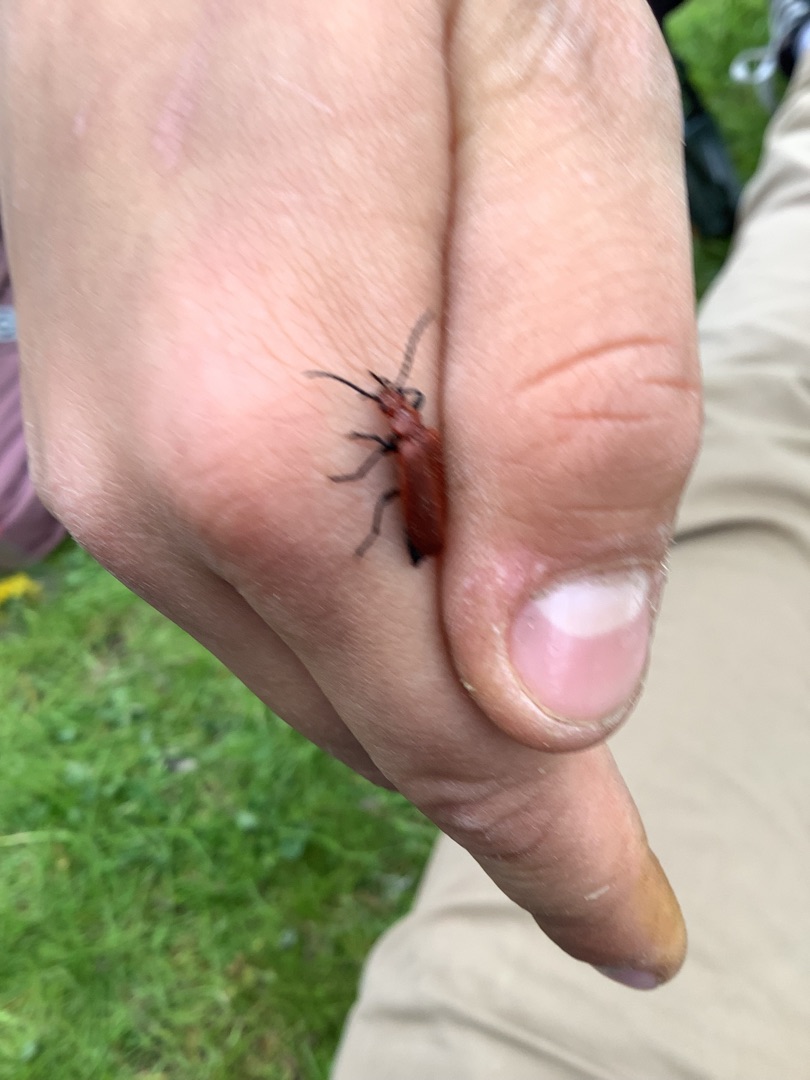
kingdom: Animalia
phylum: Arthropoda
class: Insecta
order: Coleoptera
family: Pyrochroidae
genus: Pyrochroa
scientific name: Pyrochroa serraticornis
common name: Rødhovedet kardinalbille
